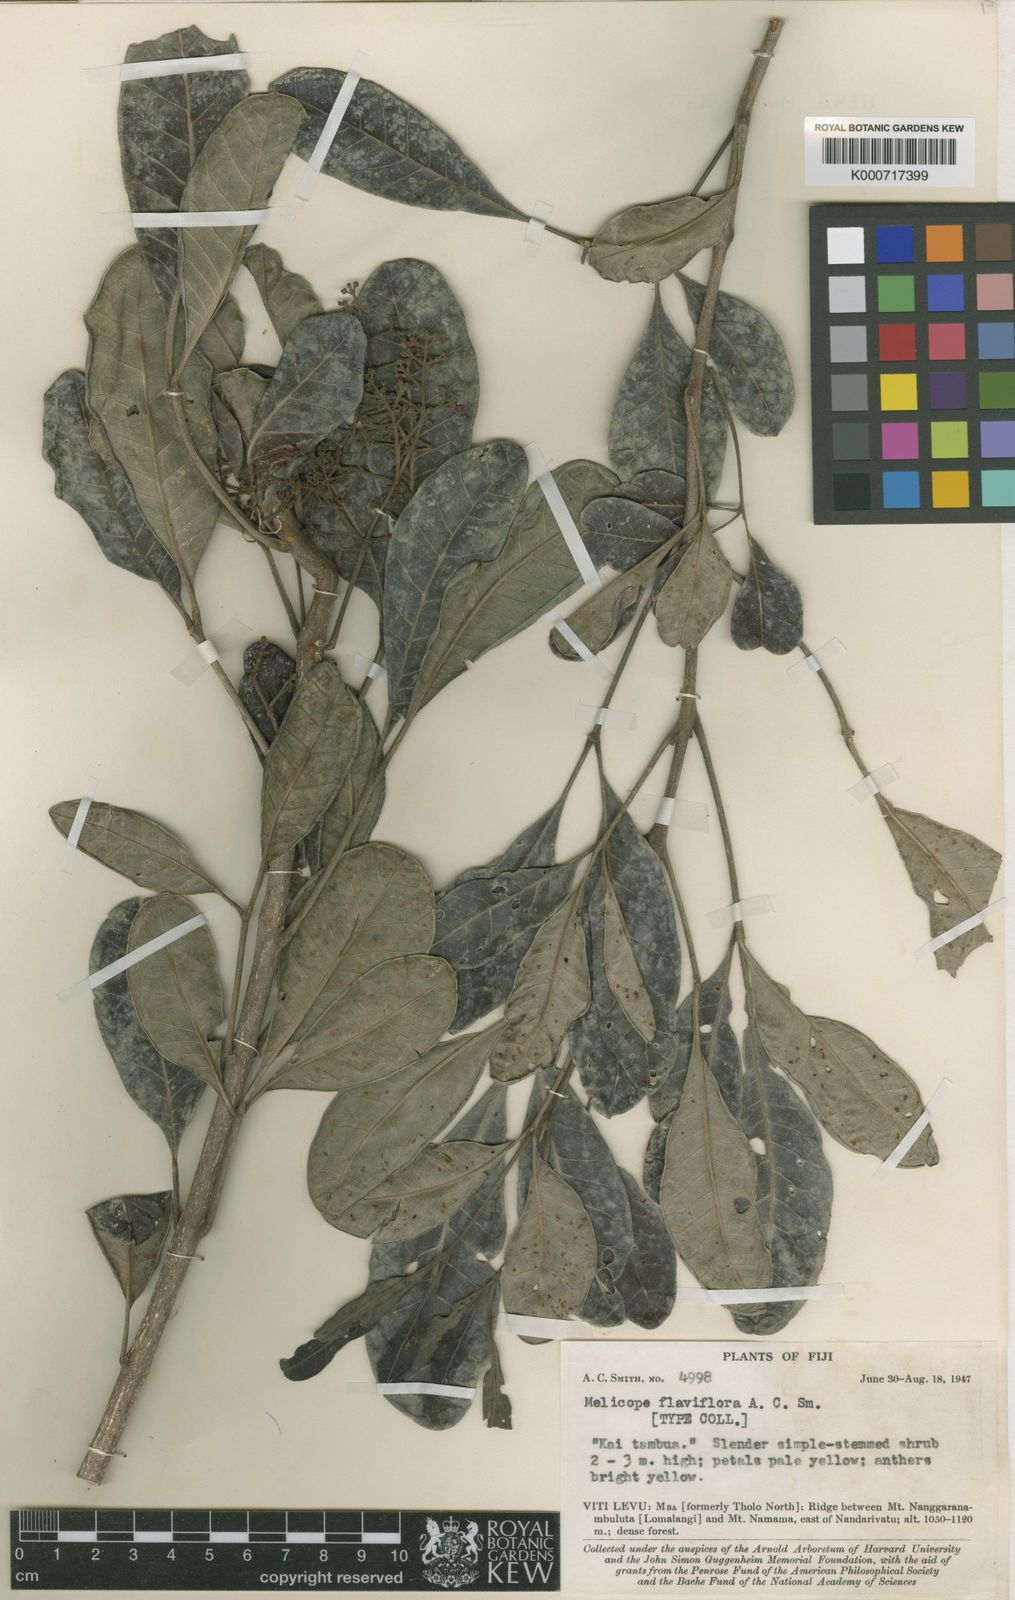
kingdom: Plantae
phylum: Tracheophyta
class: Magnoliopsida
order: Sapindales
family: Rutaceae
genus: Melicope
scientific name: Melicope flaviflora
